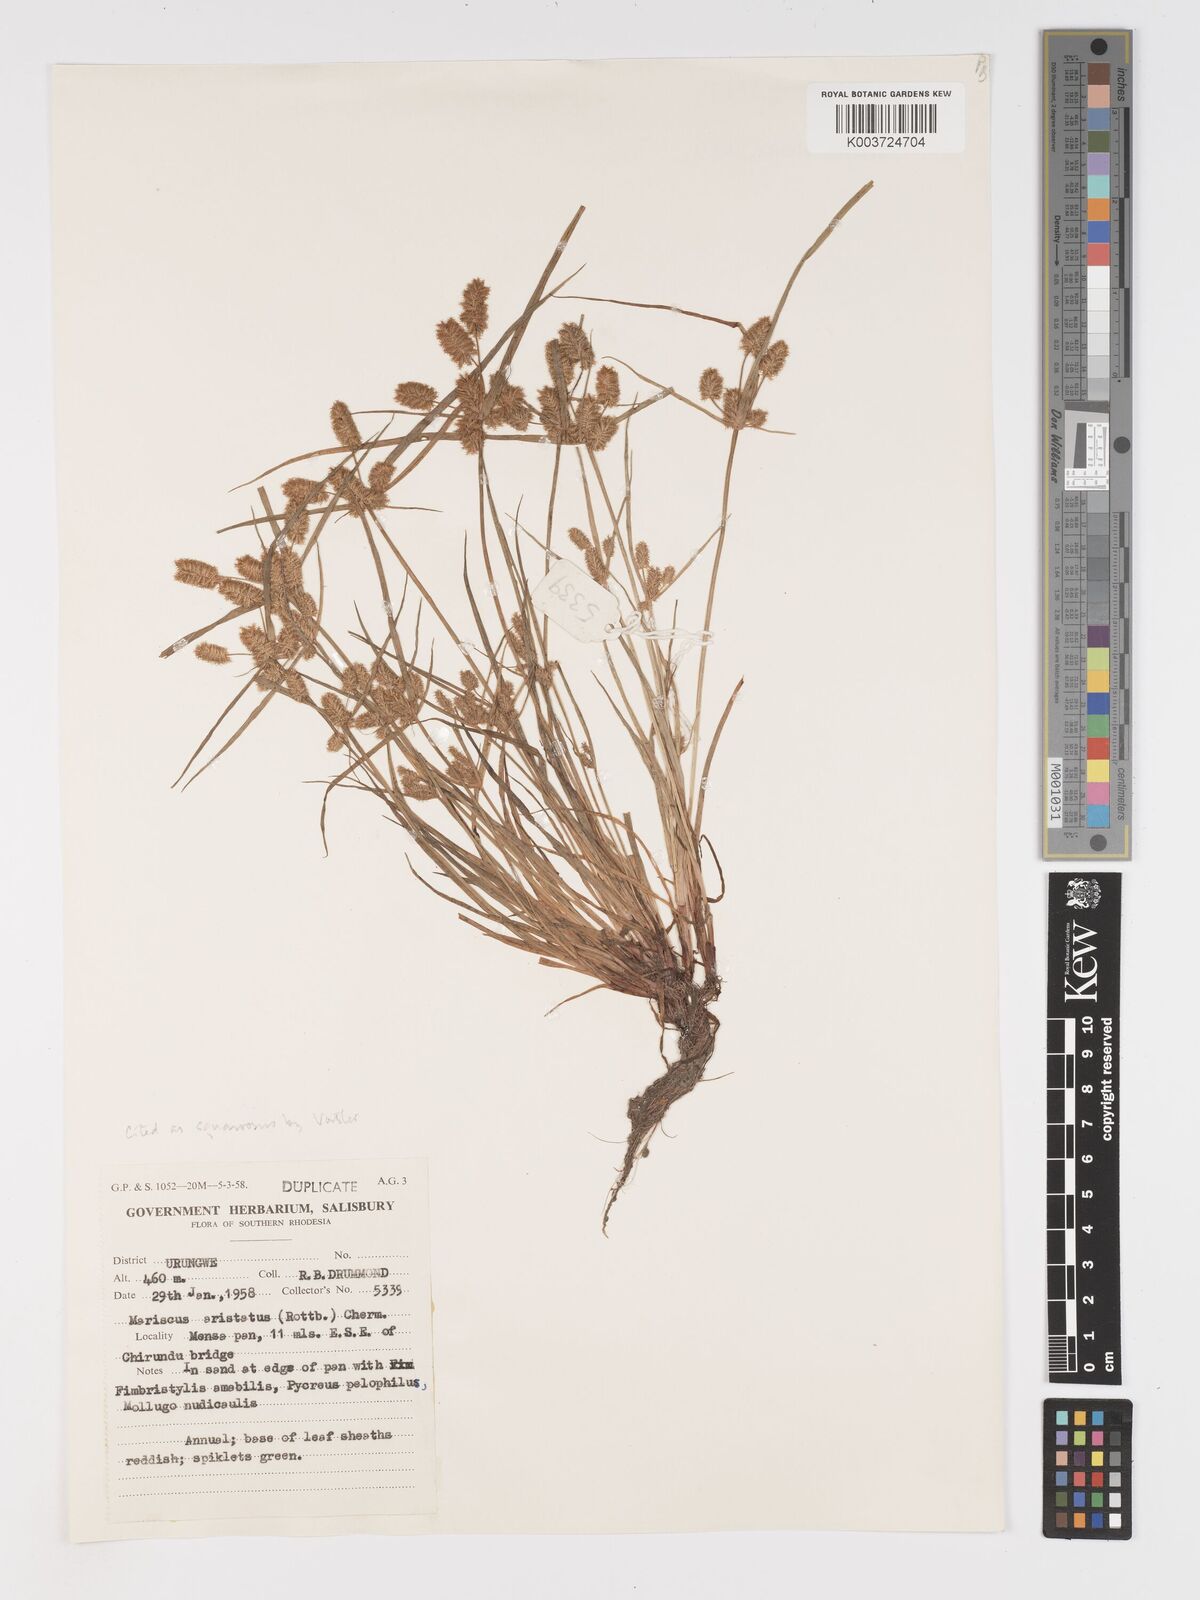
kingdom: Plantae
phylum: Tracheophyta
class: Liliopsida
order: Poales
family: Cyperaceae
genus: Cyperus
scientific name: Cyperus squarrosus
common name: Awned cyperus
